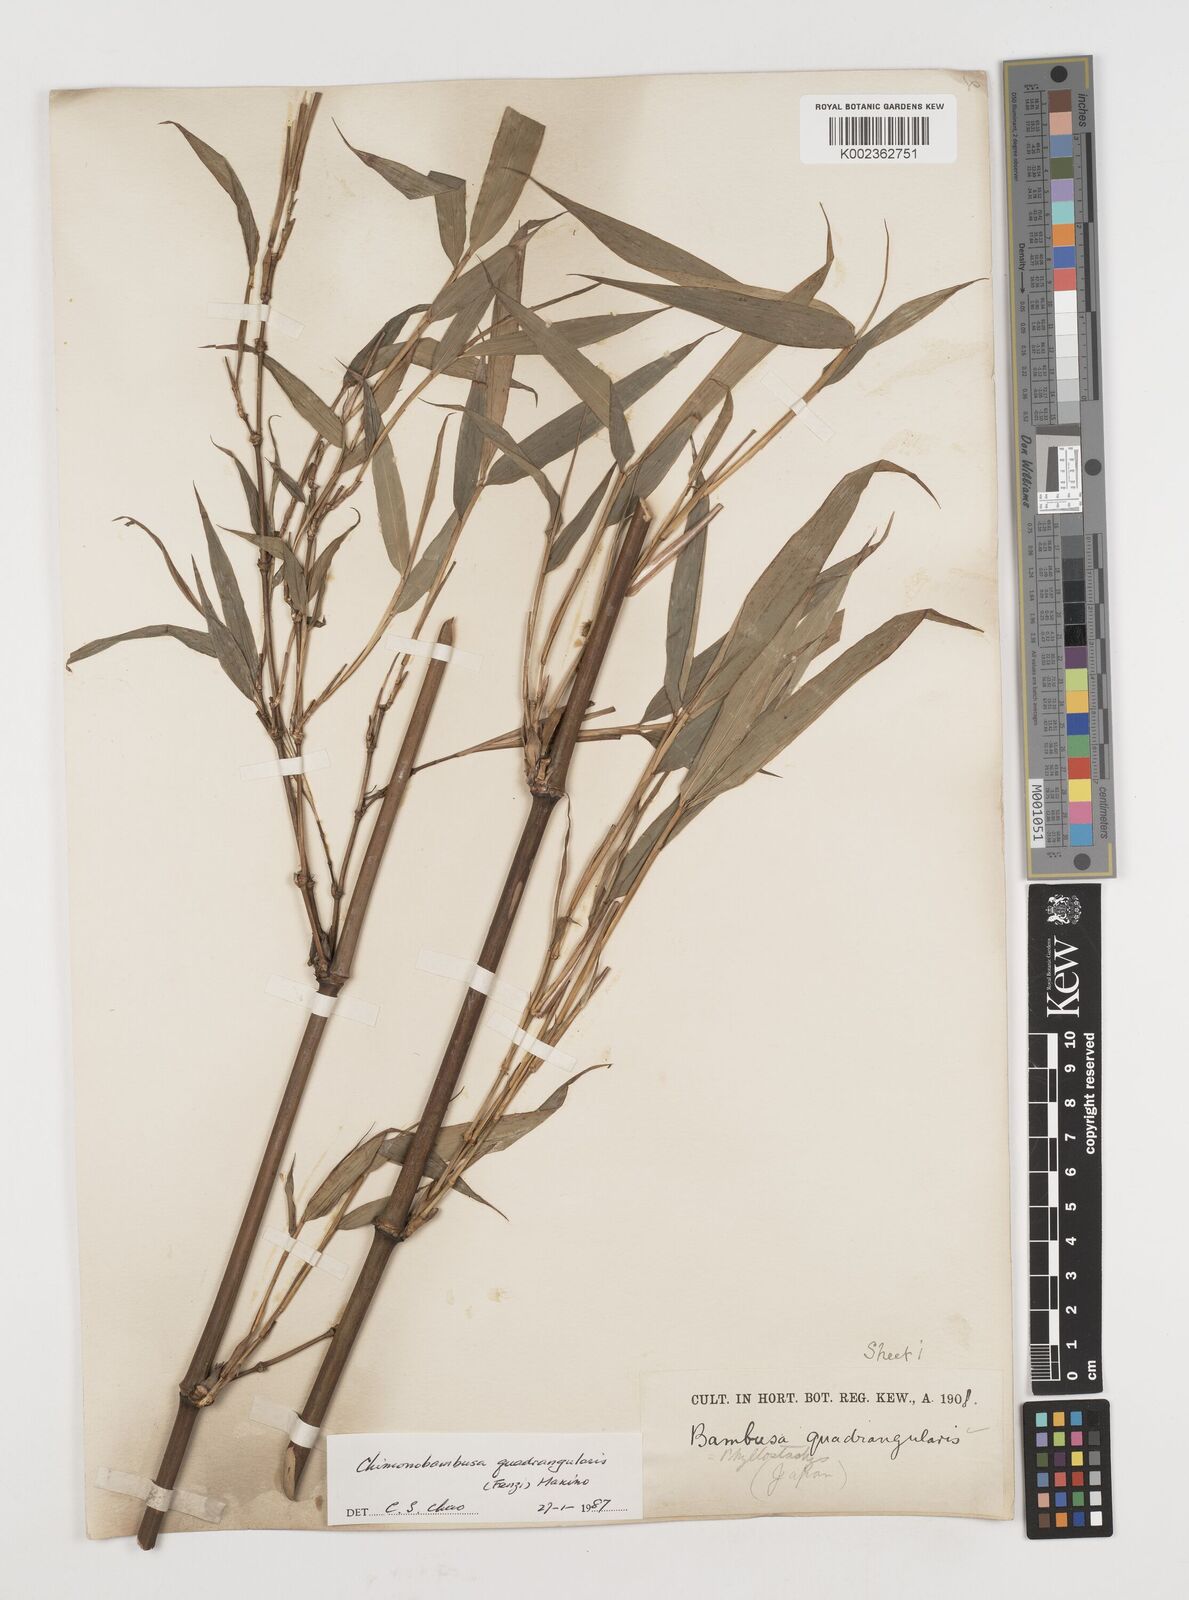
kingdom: Plantae
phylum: Tracheophyta
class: Liliopsida
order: Poales
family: Poaceae
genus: Chimonobambusa
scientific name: Chimonobambusa quadrangularis
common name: Square-stemmed bamboo
